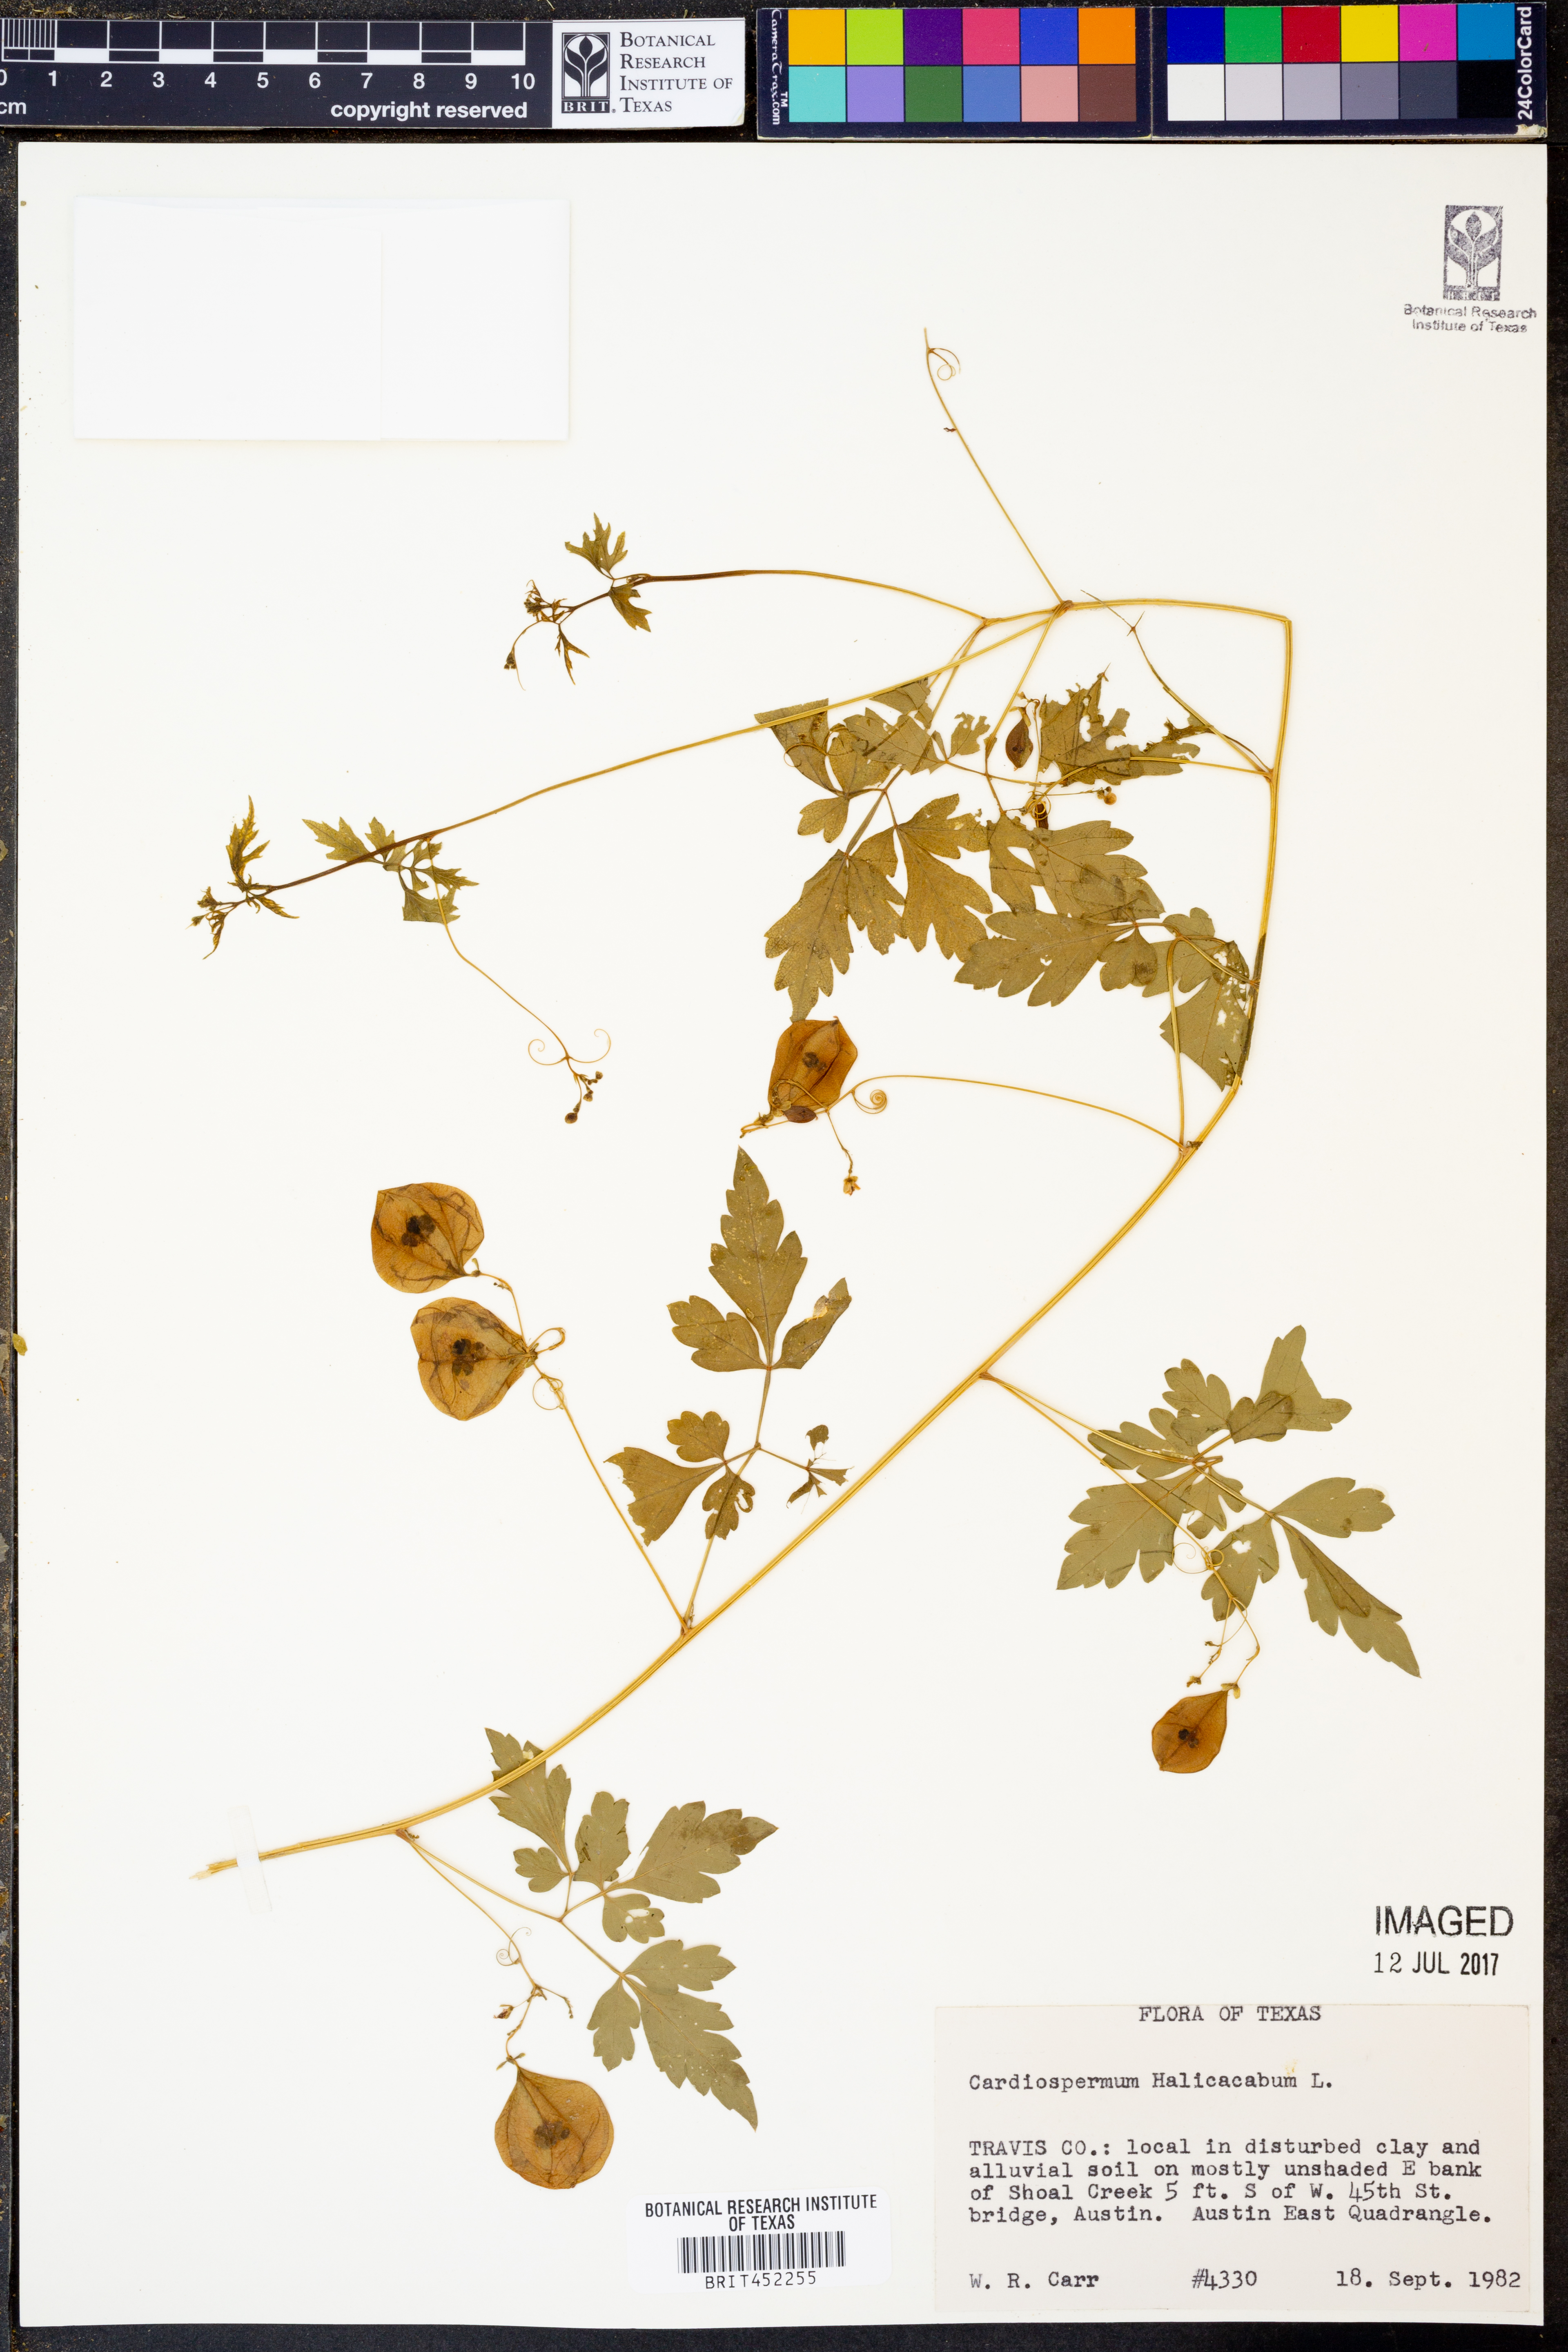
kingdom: Plantae
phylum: Tracheophyta
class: Magnoliopsida
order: Sapindales
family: Sapindaceae
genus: Cardiospermum
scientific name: Cardiospermum halicacabum
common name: Balloon vine
